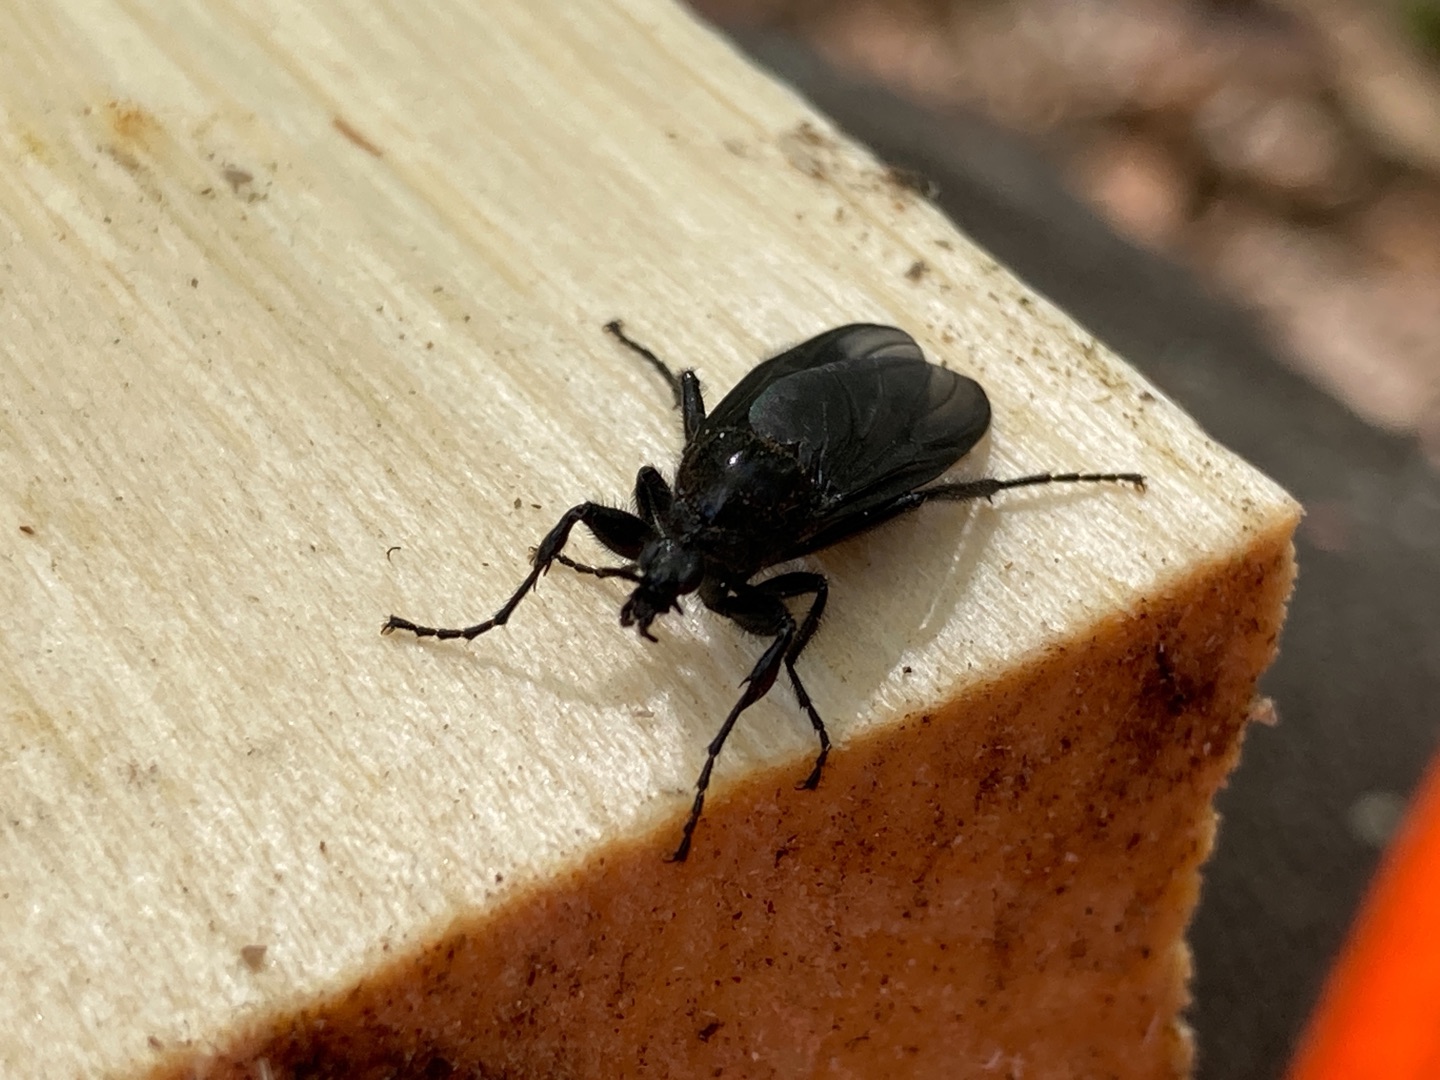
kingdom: Animalia
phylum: Arthropoda
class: Insecta
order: Diptera
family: Bibionidae
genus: Bibio
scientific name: Bibio marci
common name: Skovhårmyg
